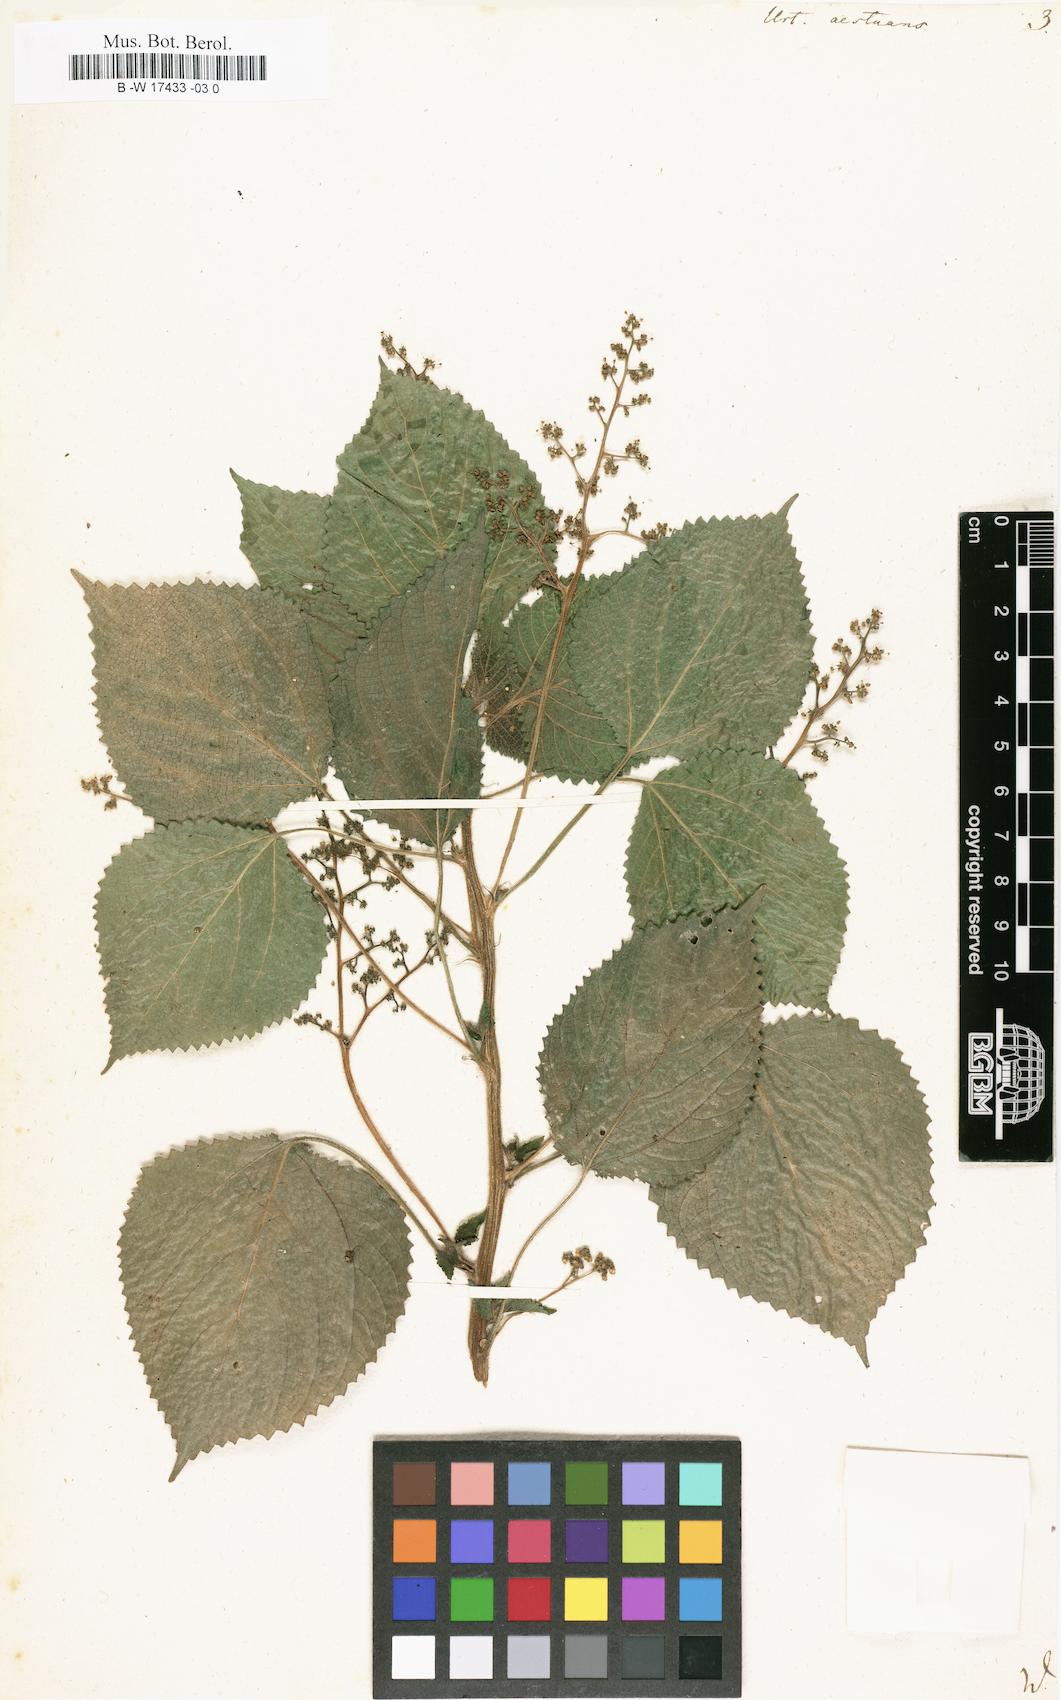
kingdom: Plantae
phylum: Tracheophyta
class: Magnoliopsida
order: Rosales
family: Urticaceae
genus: Laportea
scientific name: Laportea aestuans
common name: West indian woodnettle
